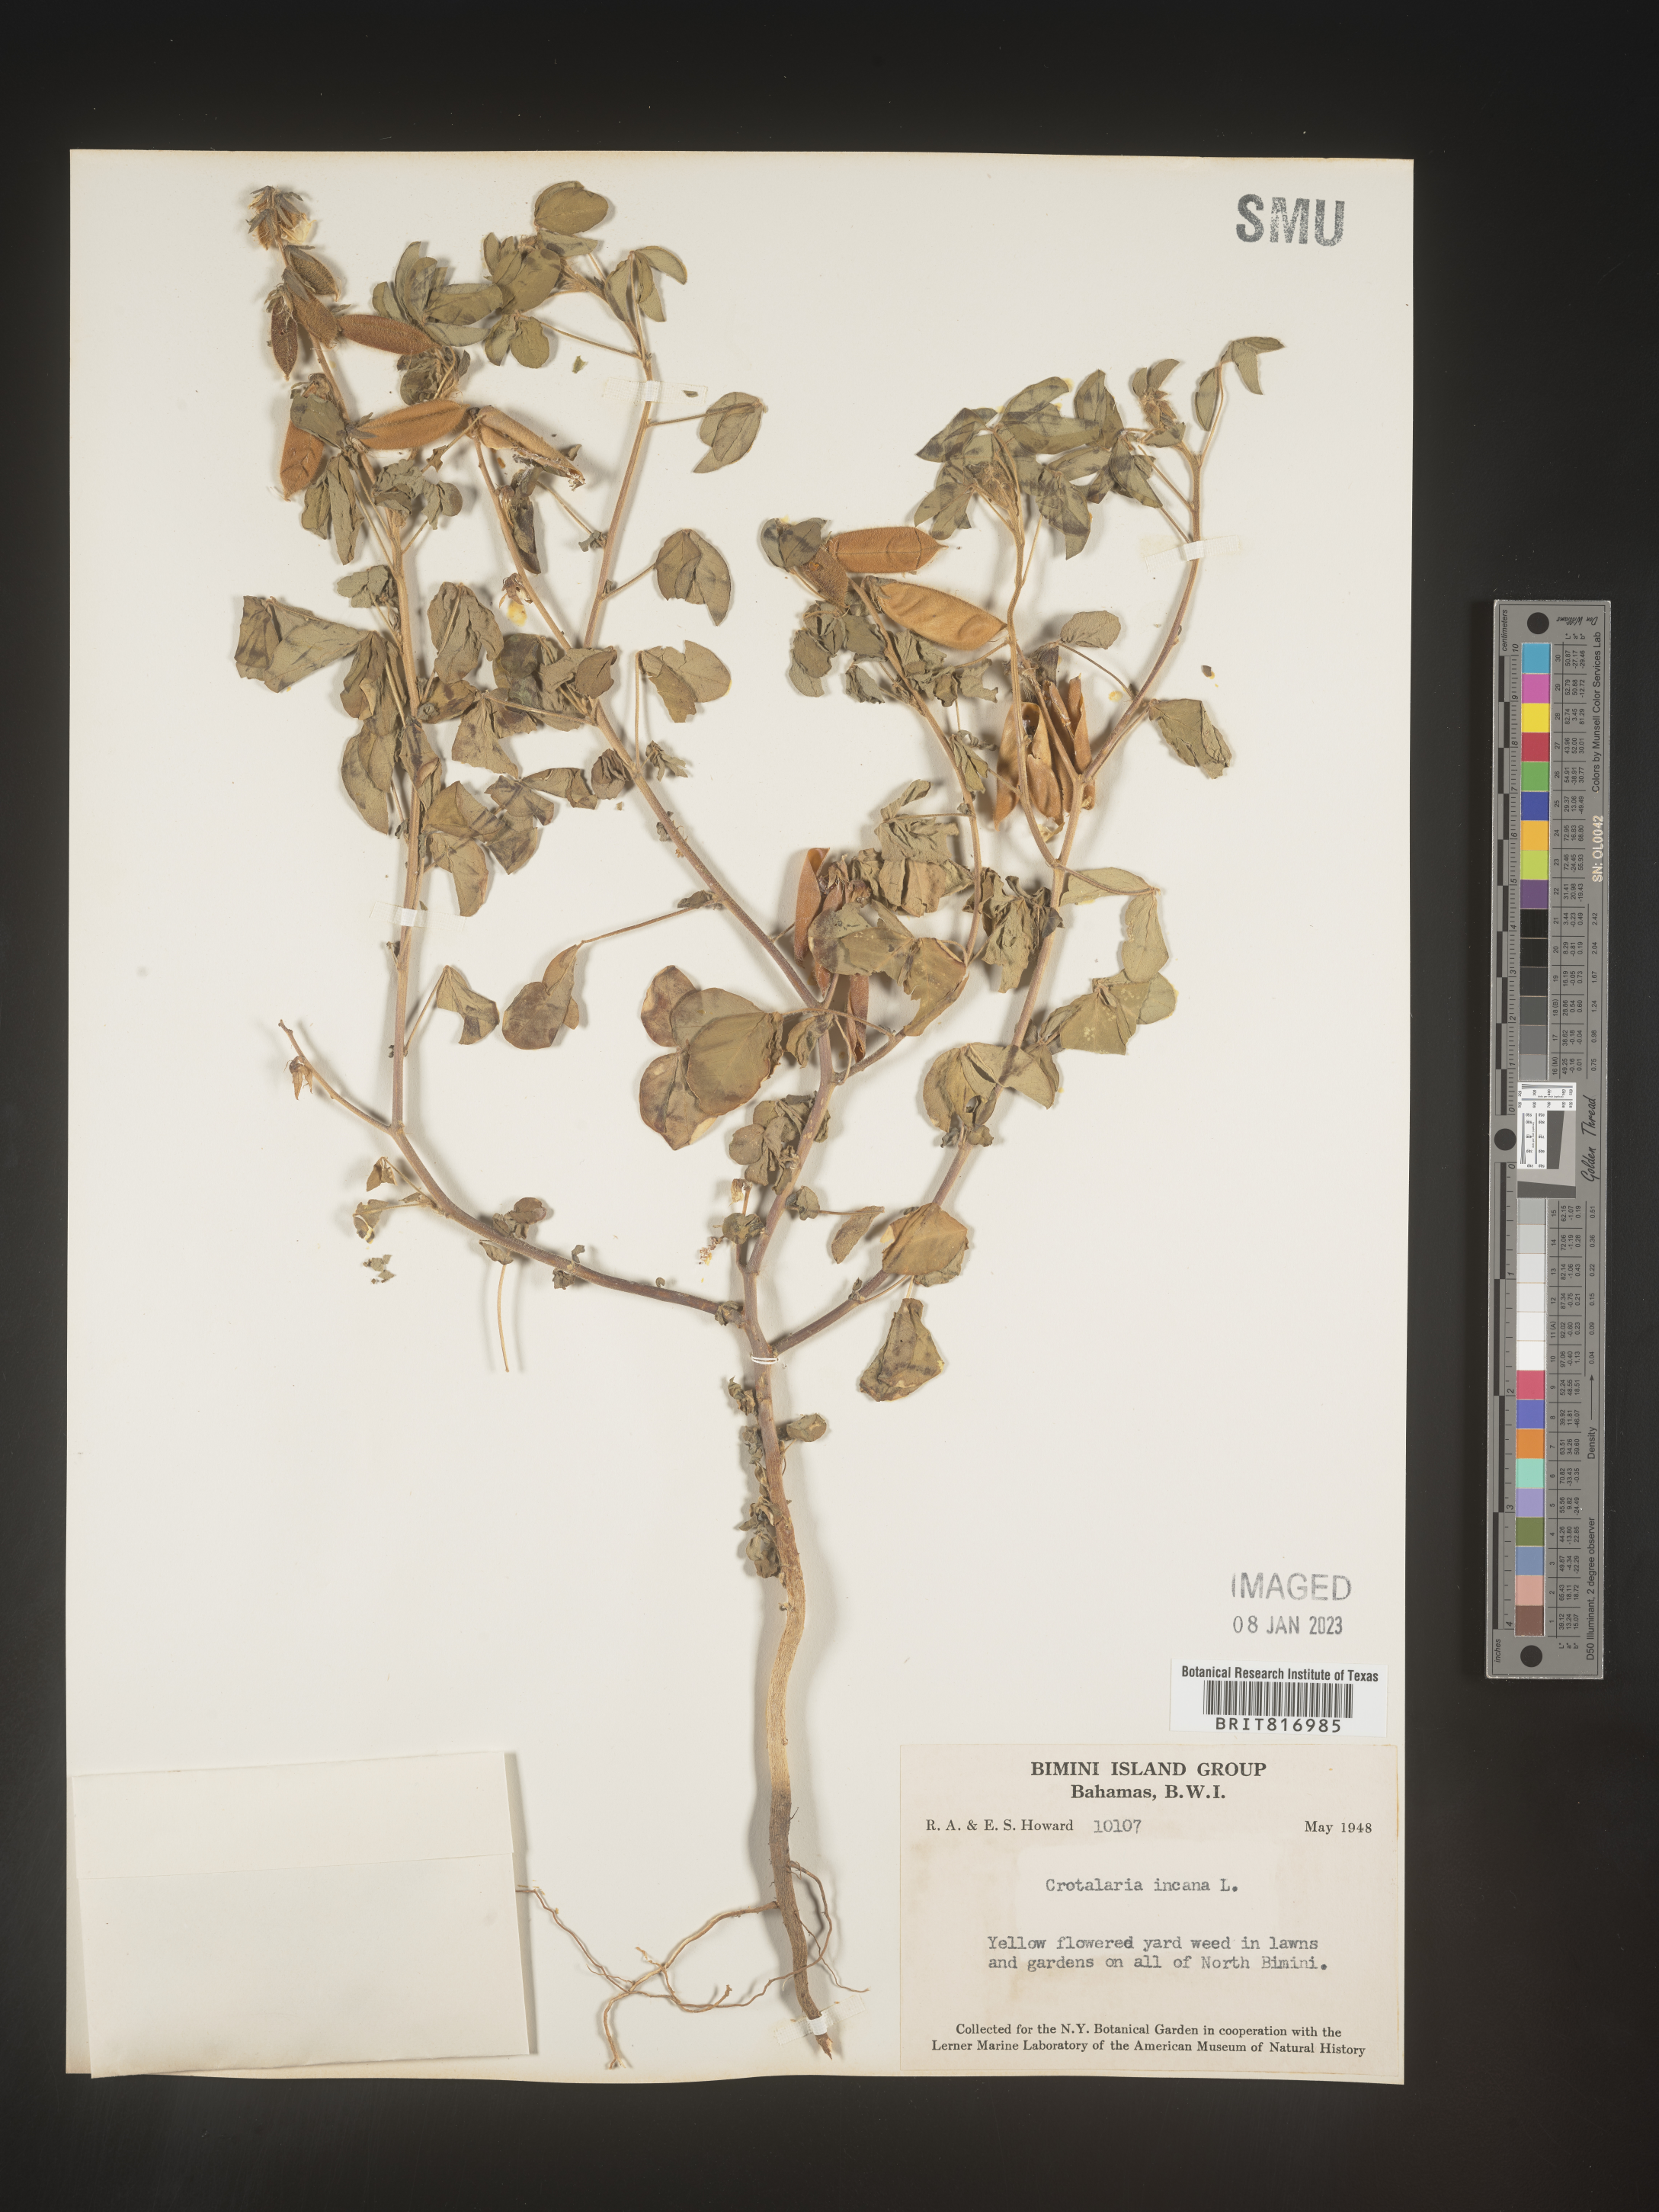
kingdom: Plantae
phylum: Tracheophyta
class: Magnoliopsida
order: Fabales
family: Fabaceae
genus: Crotalaria
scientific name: Crotalaria
